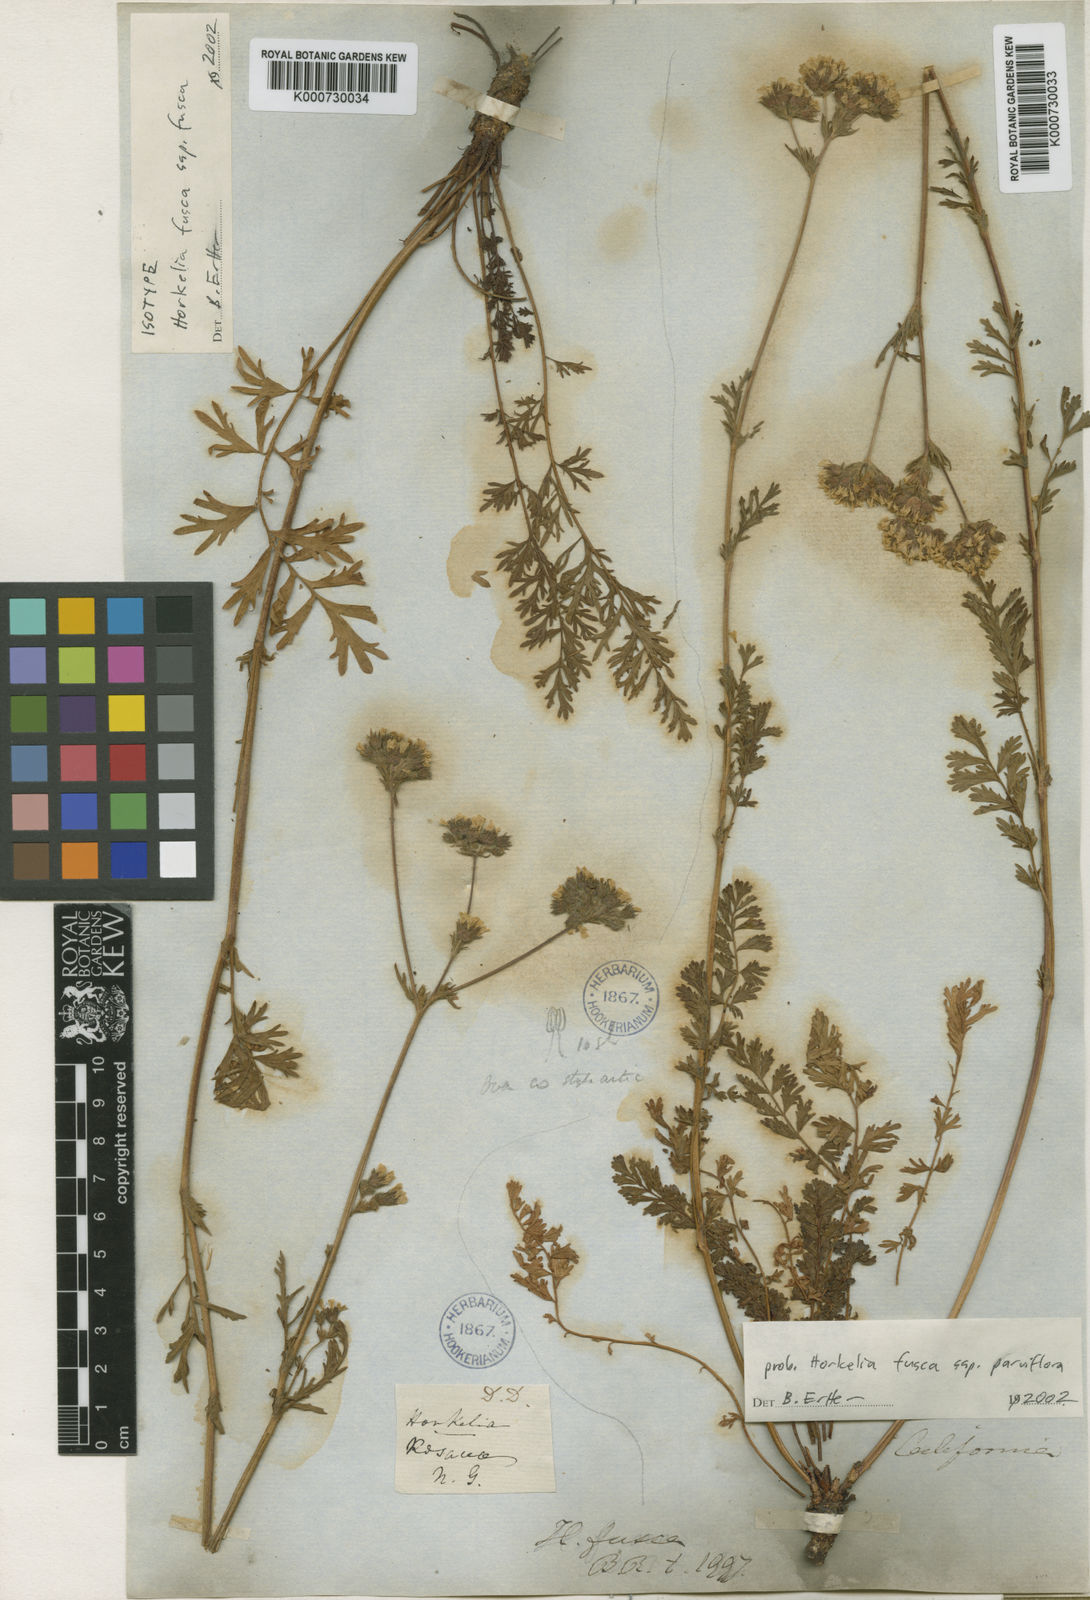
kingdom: Plantae
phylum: Tracheophyta
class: Magnoliopsida
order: Rosales
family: Rosaceae
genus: Potentilla
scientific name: Potentilla douglasii
